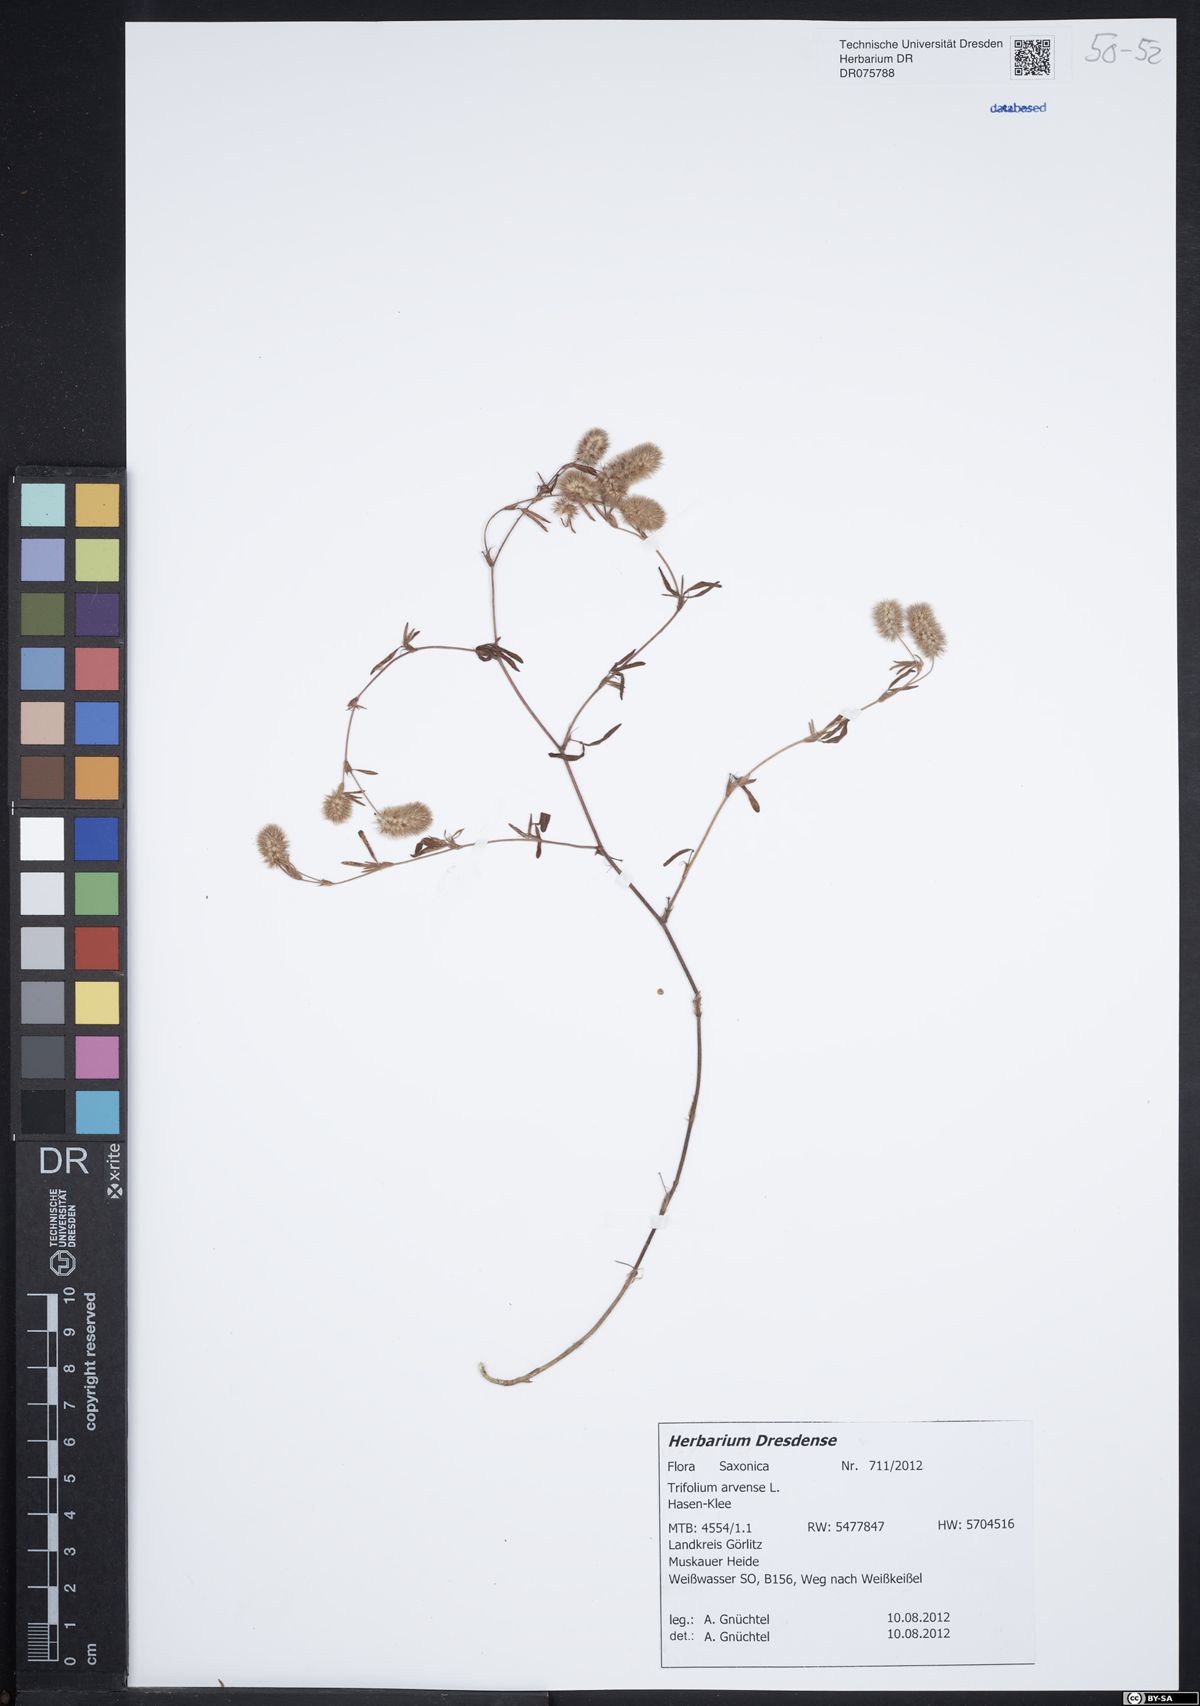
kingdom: Plantae
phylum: Tracheophyta
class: Magnoliopsida
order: Fabales
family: Fabaceae
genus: Trifolium
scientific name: Trifolium arvense
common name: Hare's-foot clover
